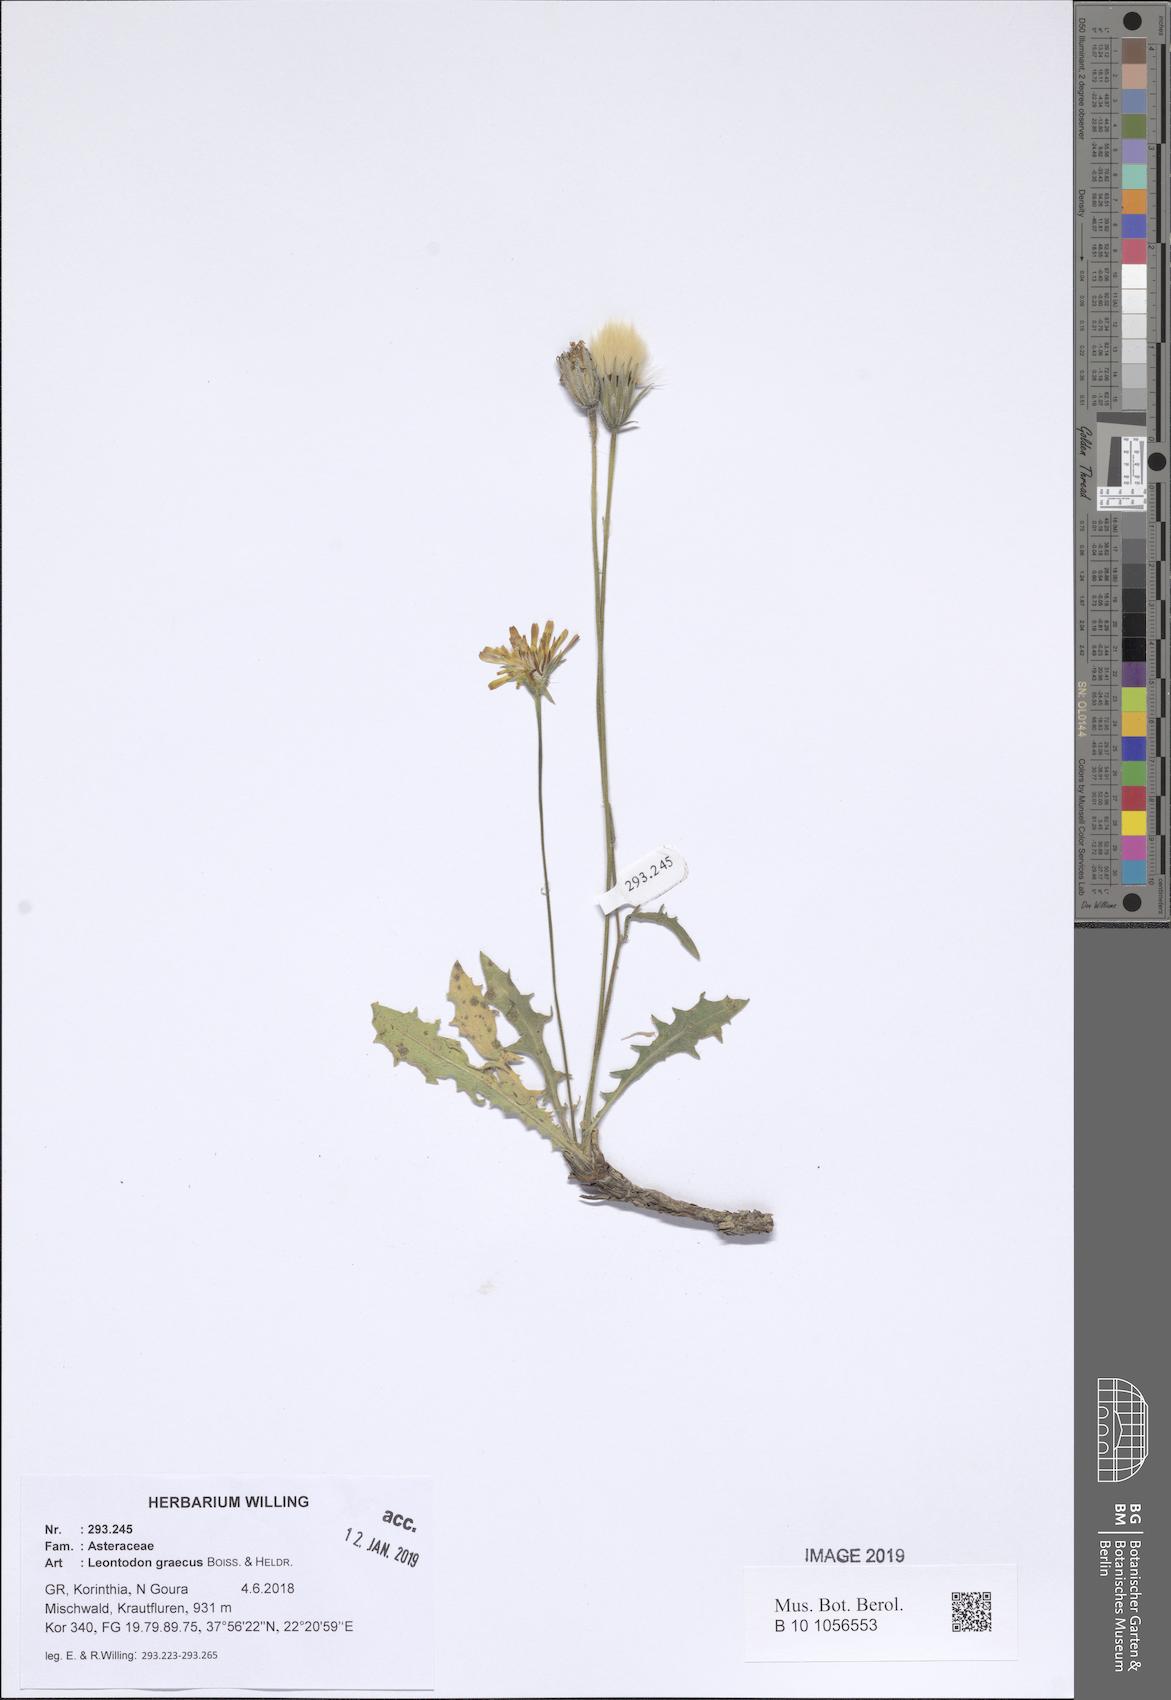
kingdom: Plantae
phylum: Tracheophyta
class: Magnoliopsida
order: Asterales
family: Asteraceae
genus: Leontodon
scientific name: Leontodon graecus
